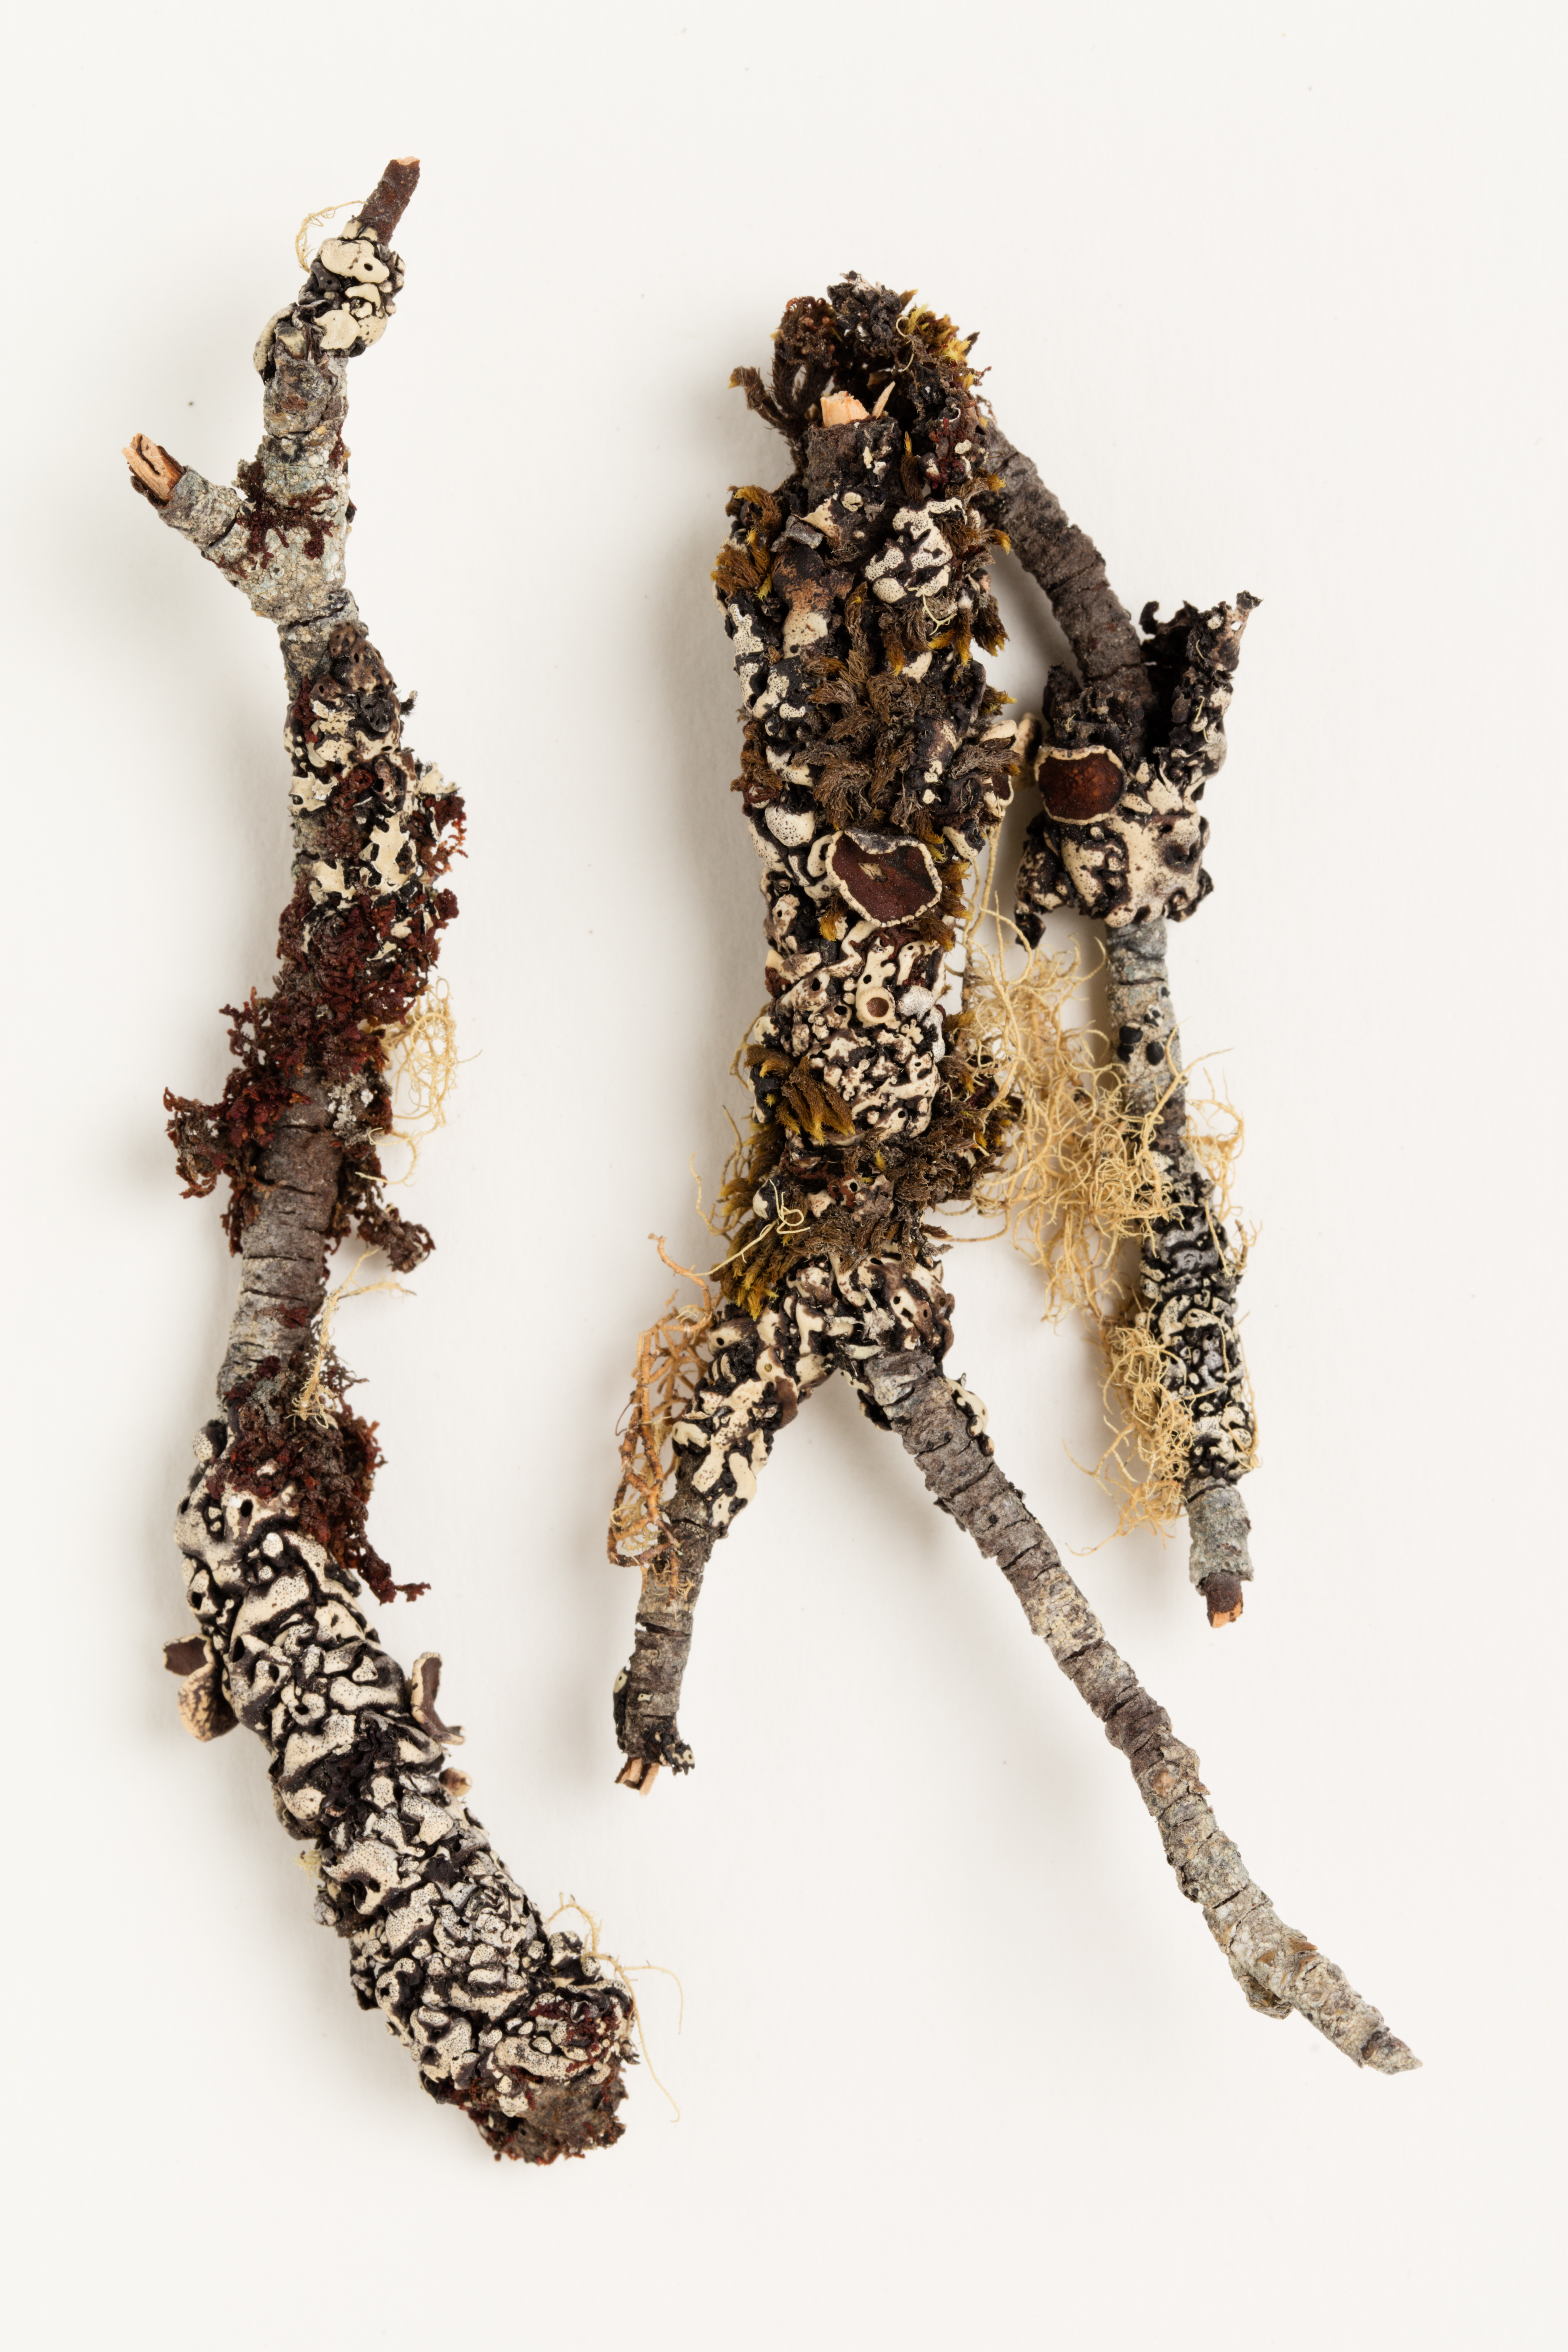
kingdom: Fungi
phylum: Ascomycota
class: Lecanoromycetes
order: Lecanorales
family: Parmeliaceae
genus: Menegazzia
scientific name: Menegazzia dielsii
